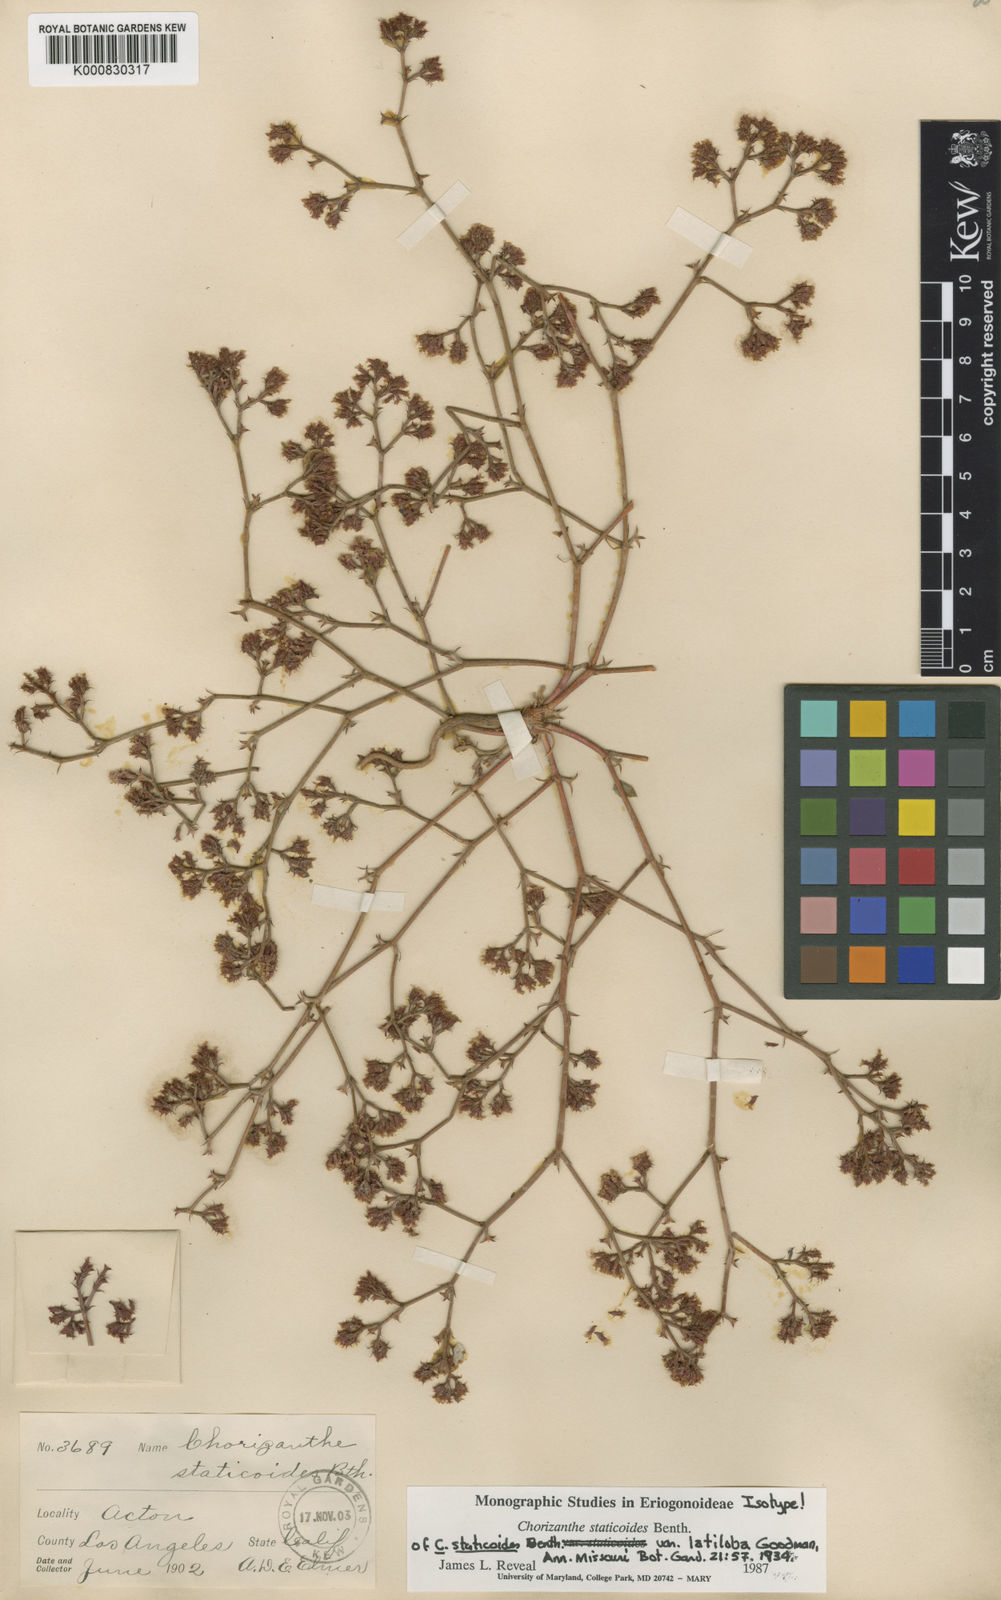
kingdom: Plantae
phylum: Tracheophyta
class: Magnoliopsida
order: Caryophyllales
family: Polygonaceae
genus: Chorizanthe
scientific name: Chorizanthe staticoides
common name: Turkish rugging
